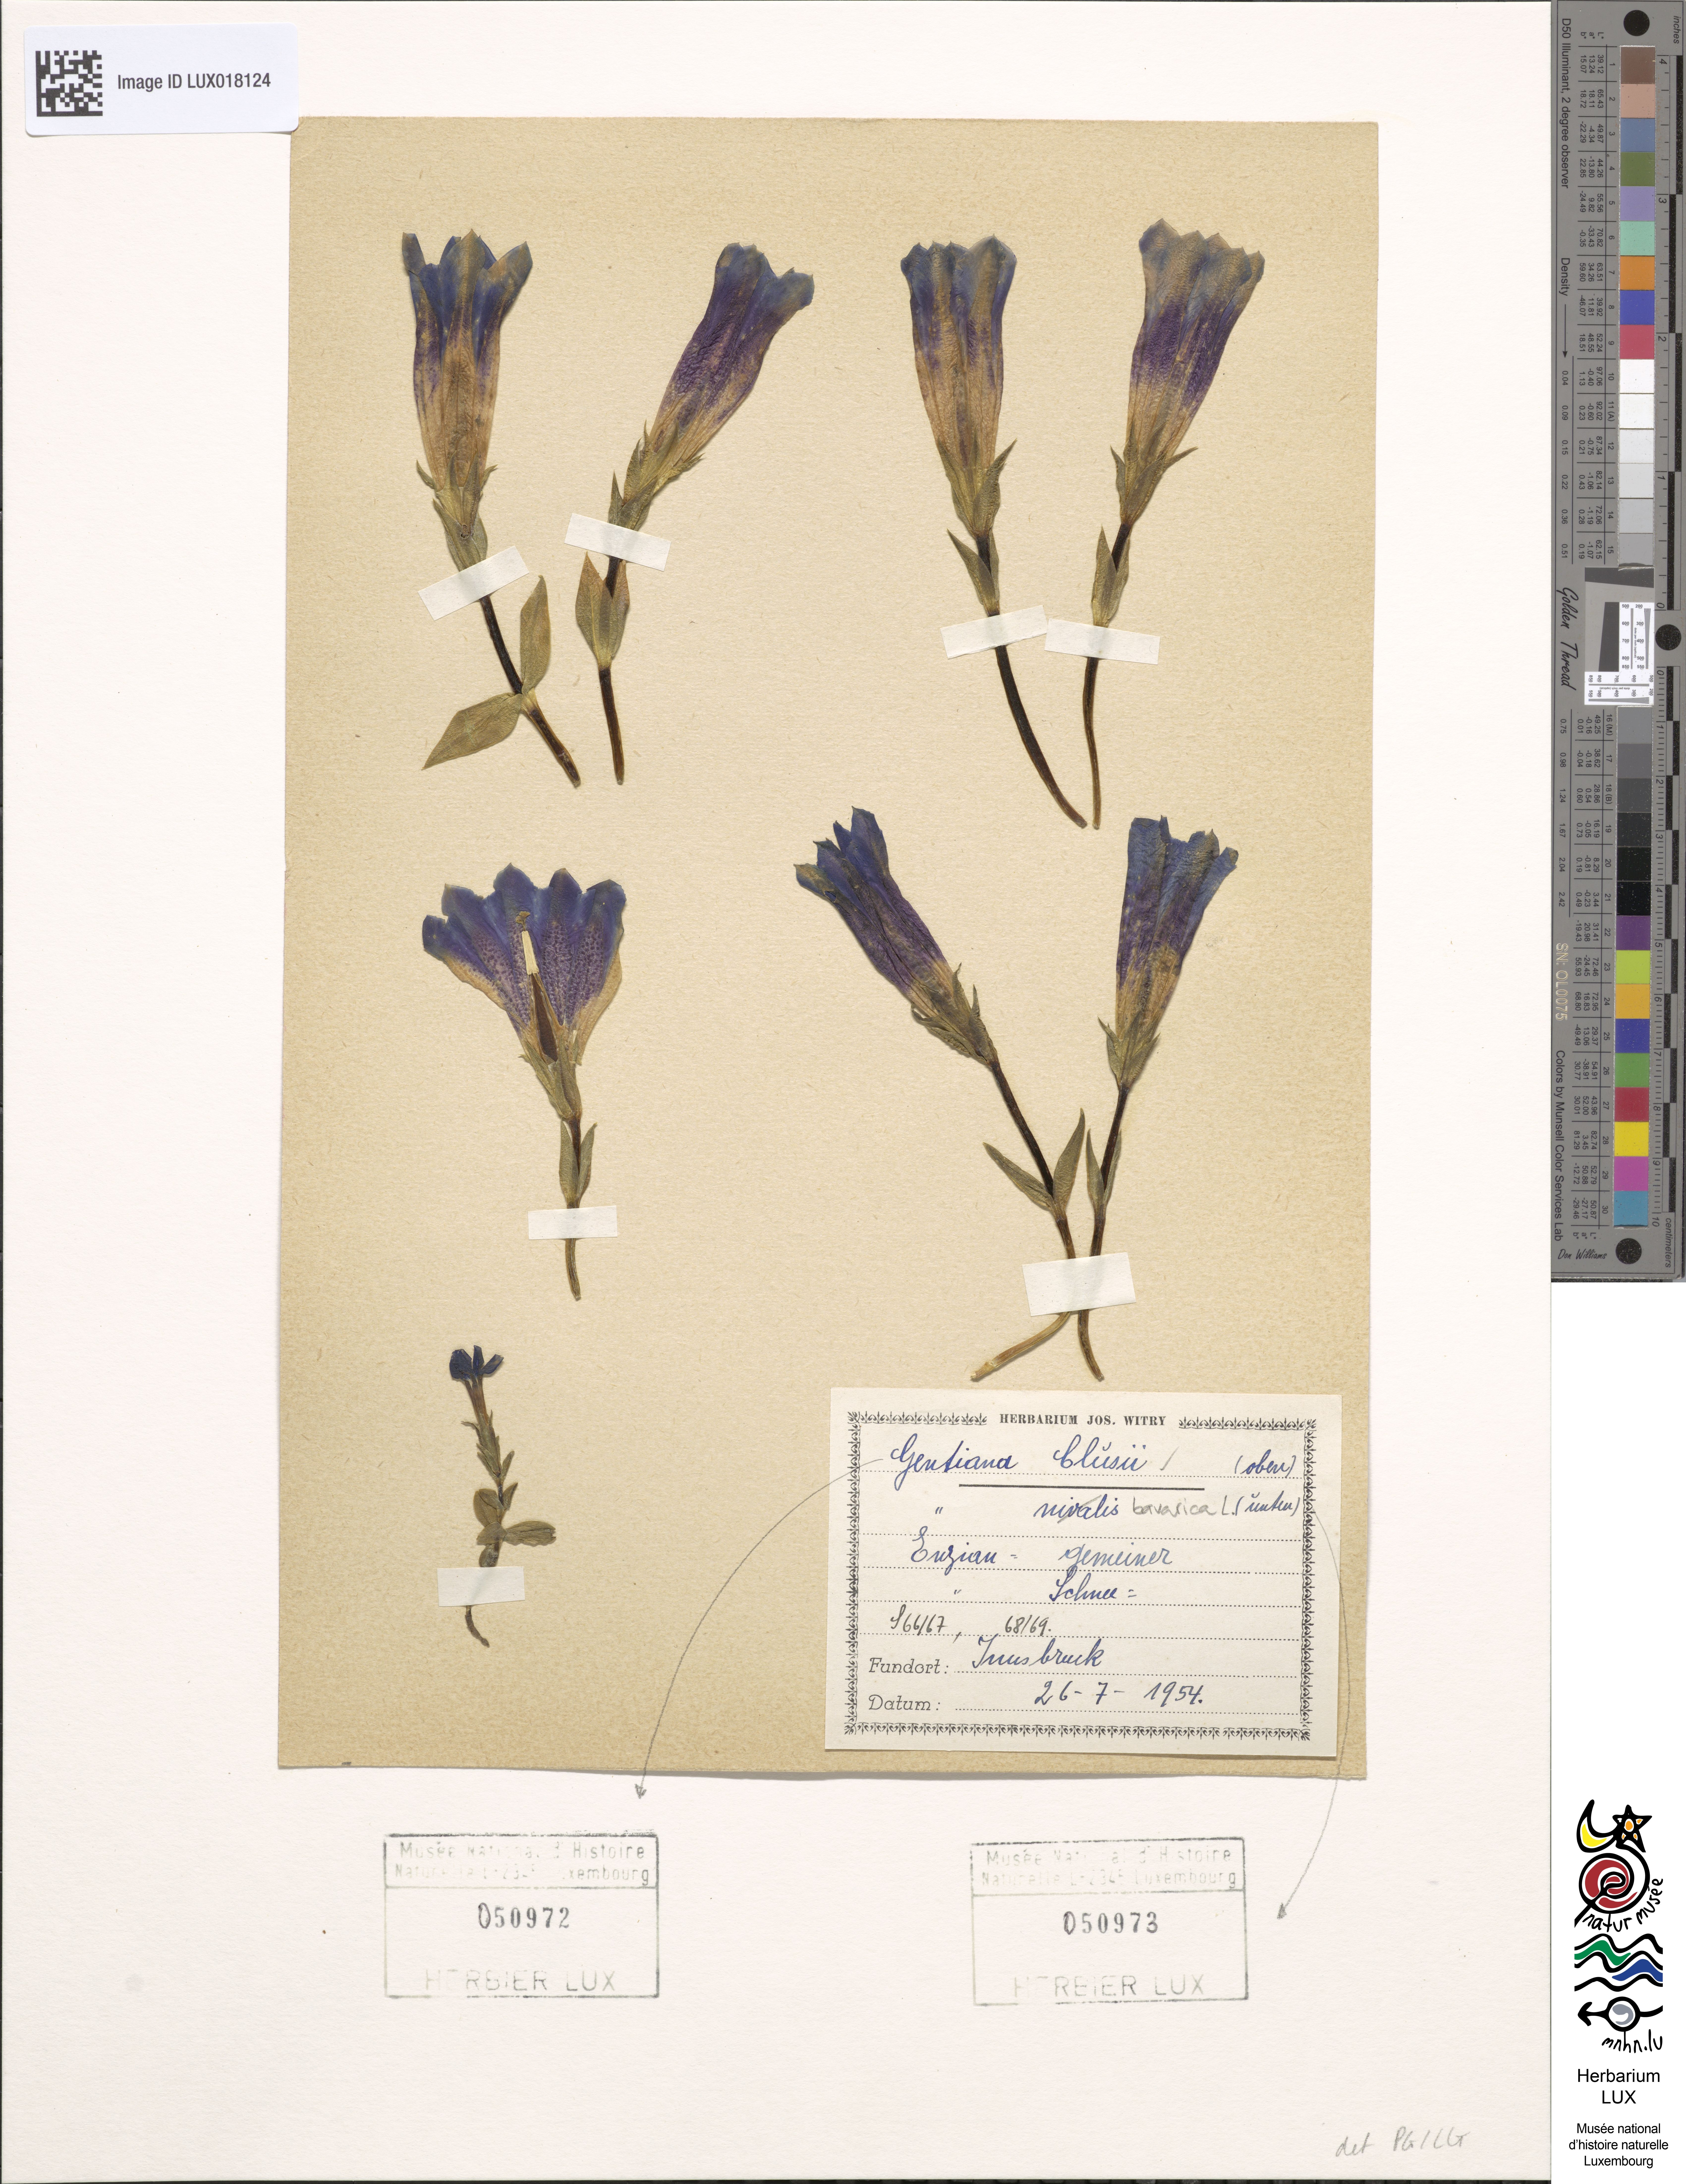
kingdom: Plantae
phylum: Tracheophyta
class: Magnoliopsida
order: Gentianales
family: Gentianaceae
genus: Gentiana
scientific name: Gentiana clusii
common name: Trumpet gentian
